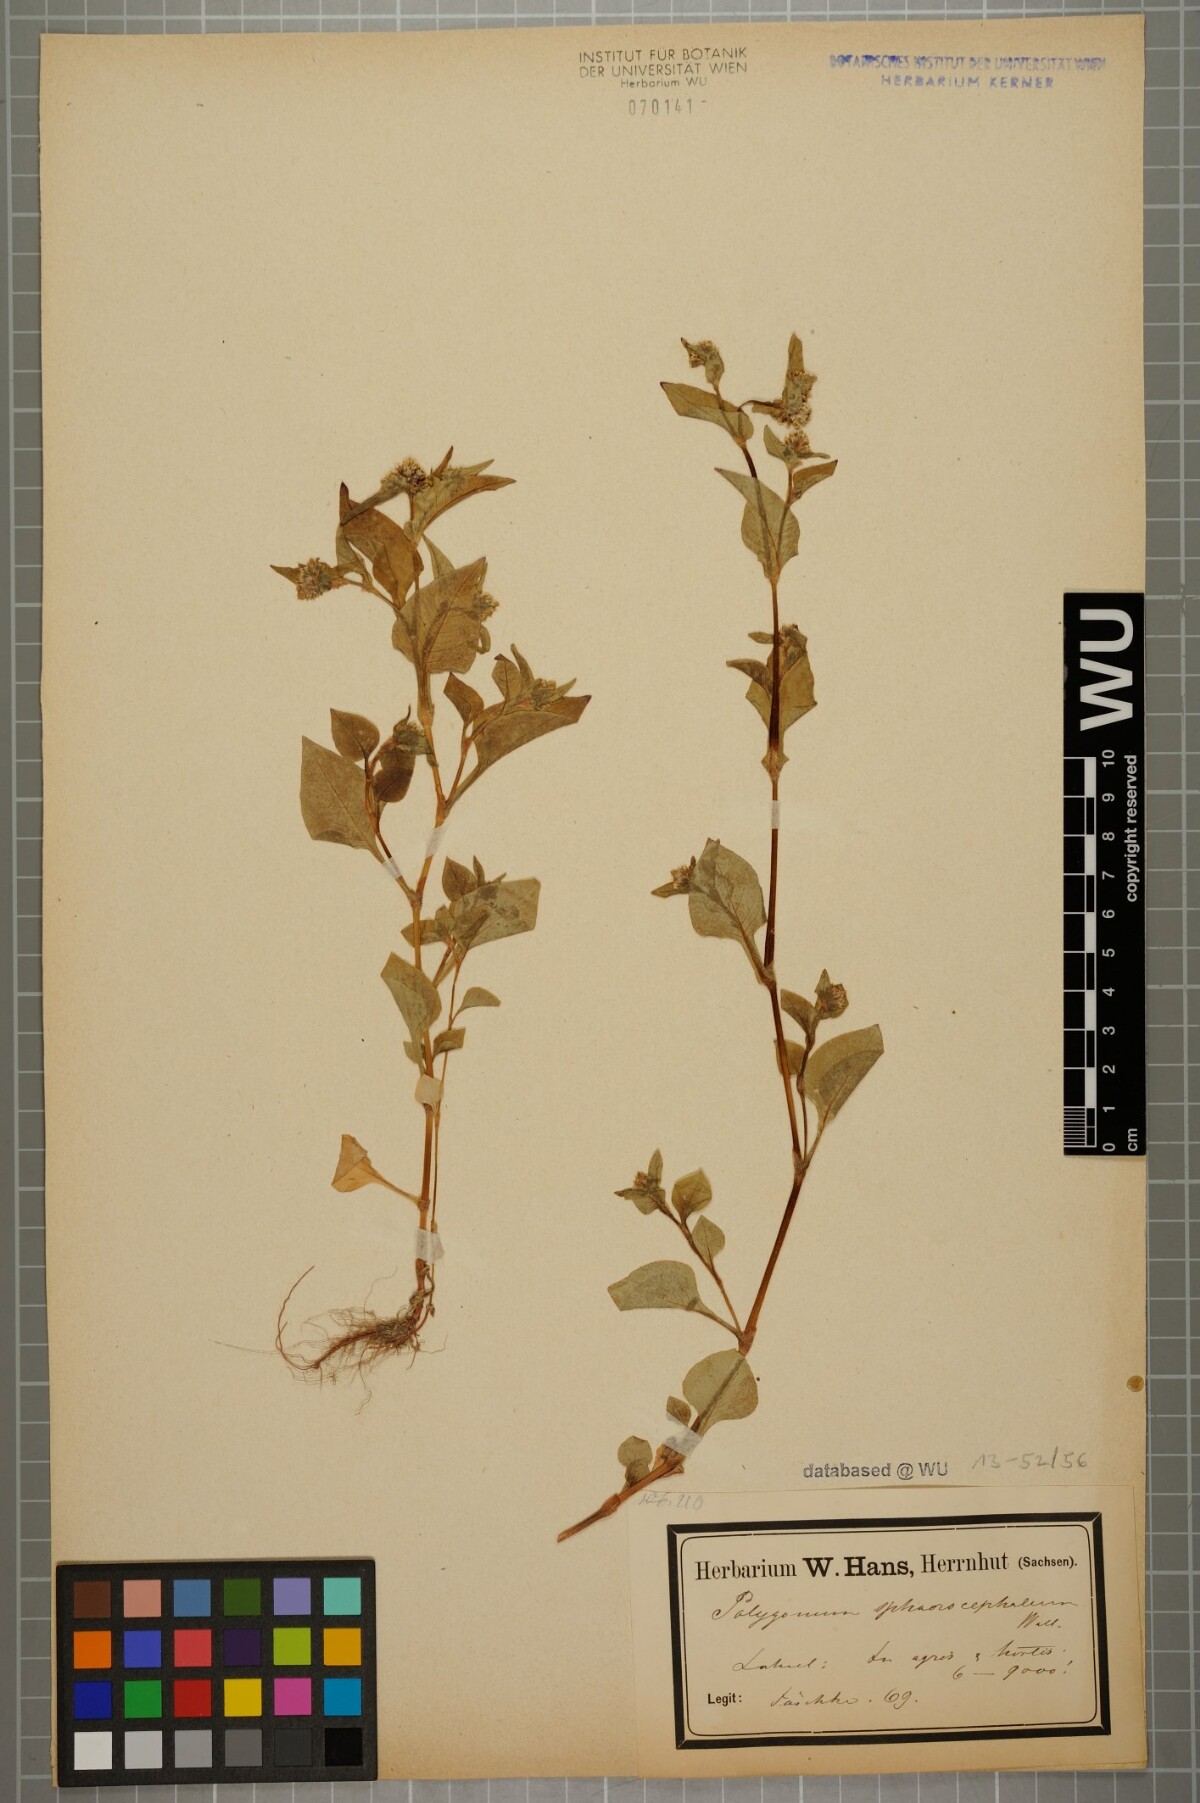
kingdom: Plantae
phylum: Tracheophyta
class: Magnoliopsida
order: Caryophyllales
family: Polygonaceae
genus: Persicaria
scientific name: Persicaria microcephala
